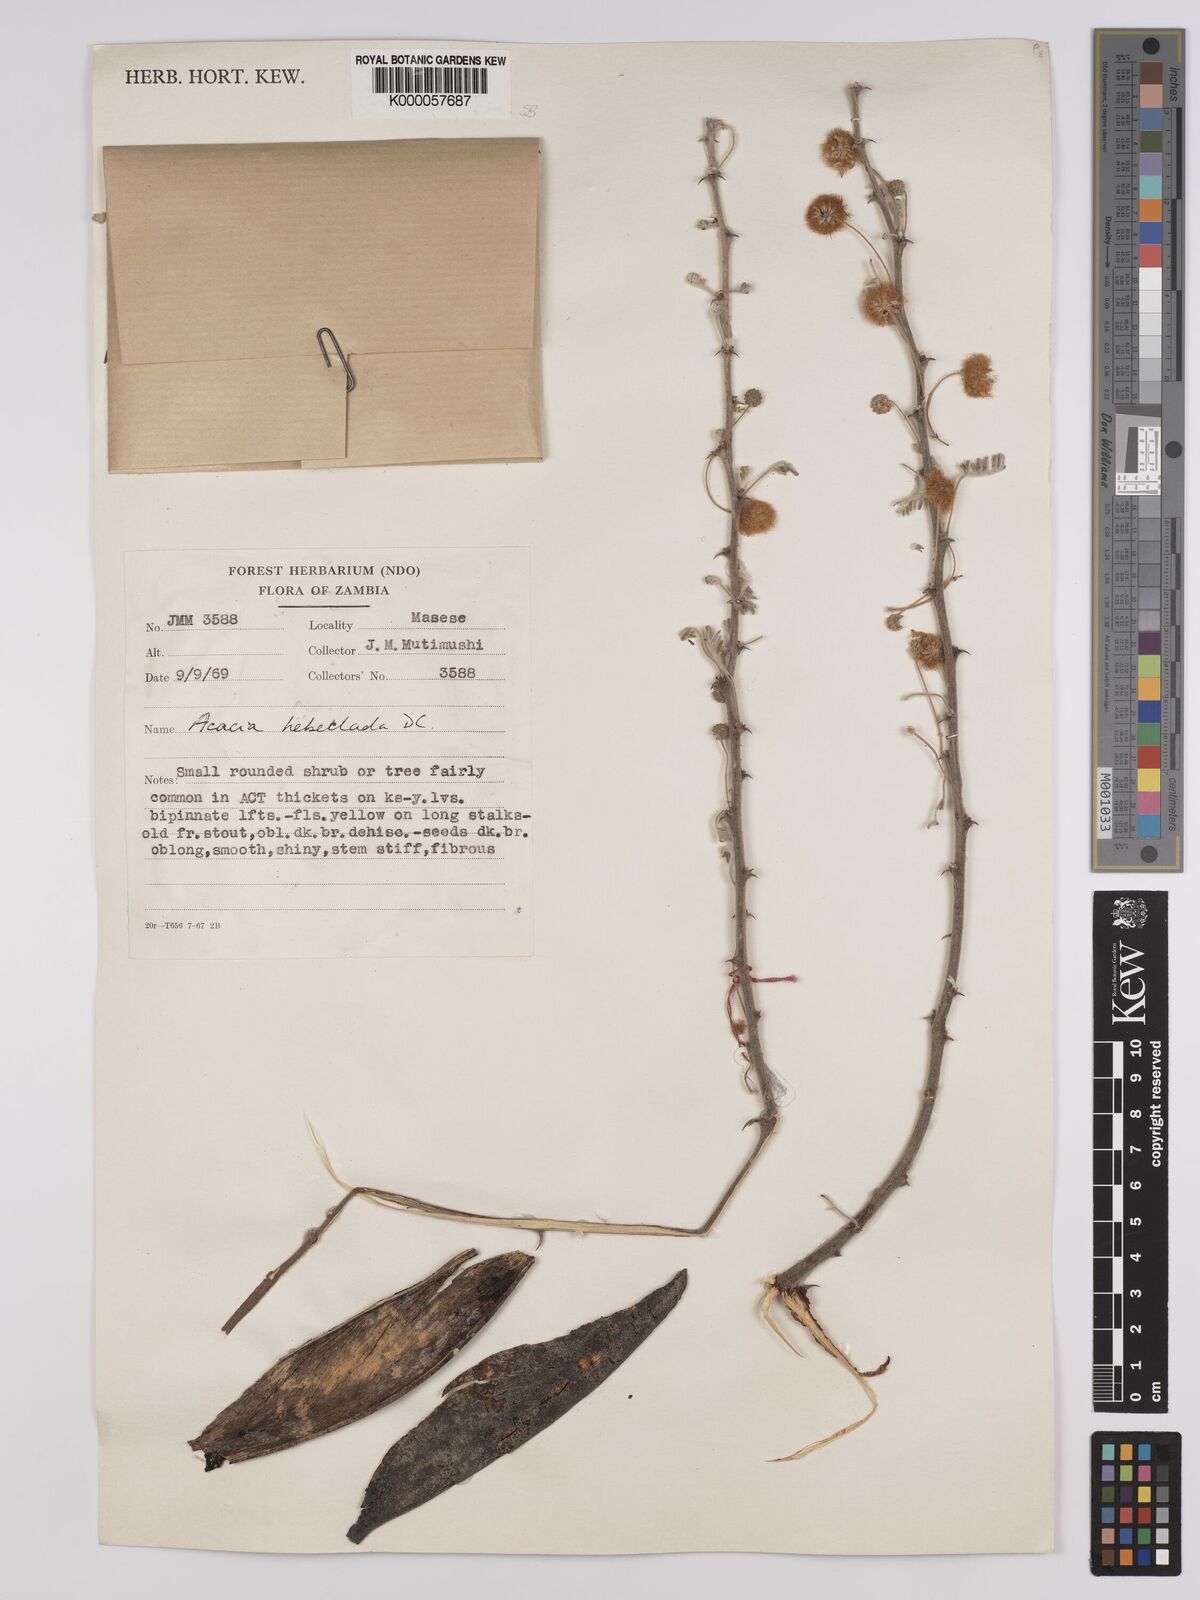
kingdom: Plantae
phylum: Tracheophyta
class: Magnoliopsida
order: Fabales
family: Fabaceae
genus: Vachellia
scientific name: Vachellia hebeclada
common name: Candle thorn
